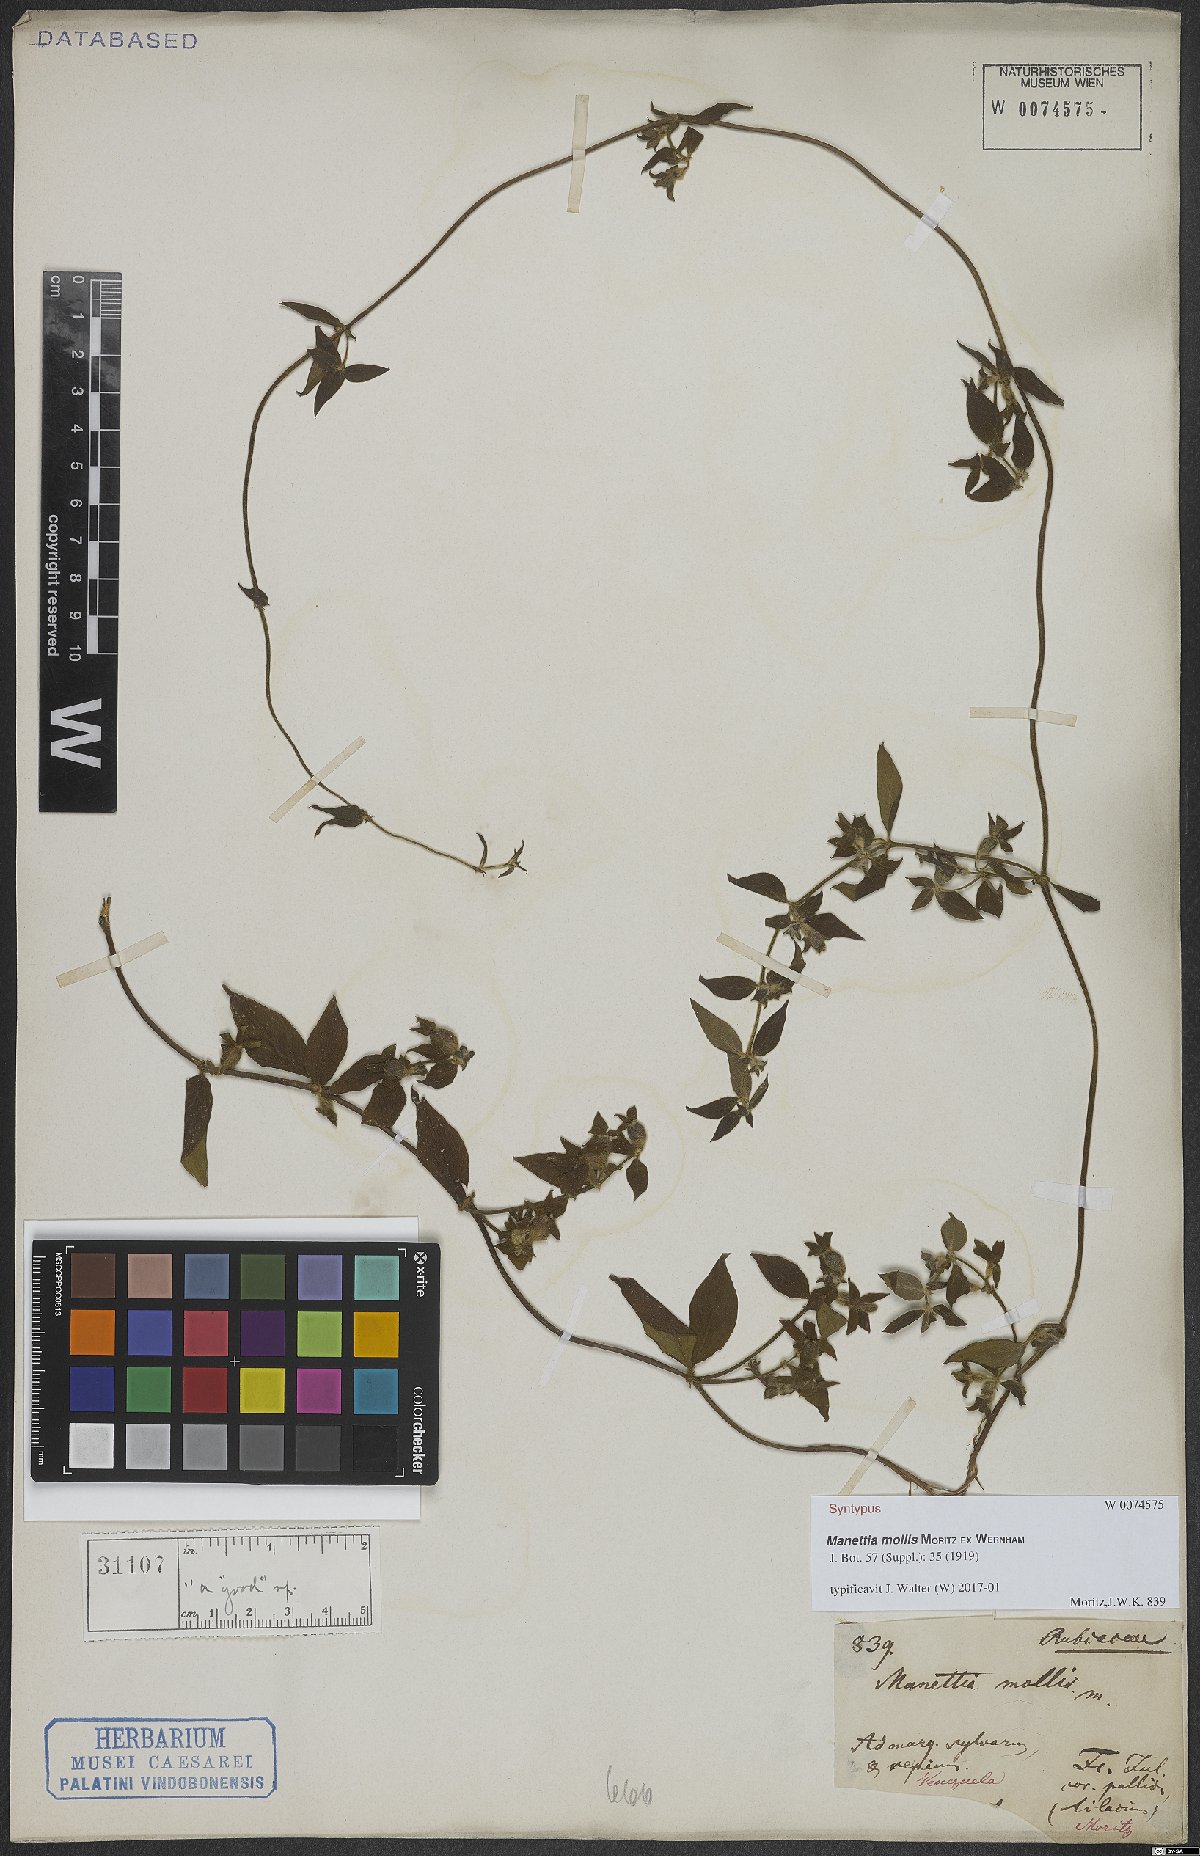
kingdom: Plantae
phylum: Tracheophyta
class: Magnoliopsida
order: Gentianales
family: Rubiaceae
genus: Manettia
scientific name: Manettia mollis
